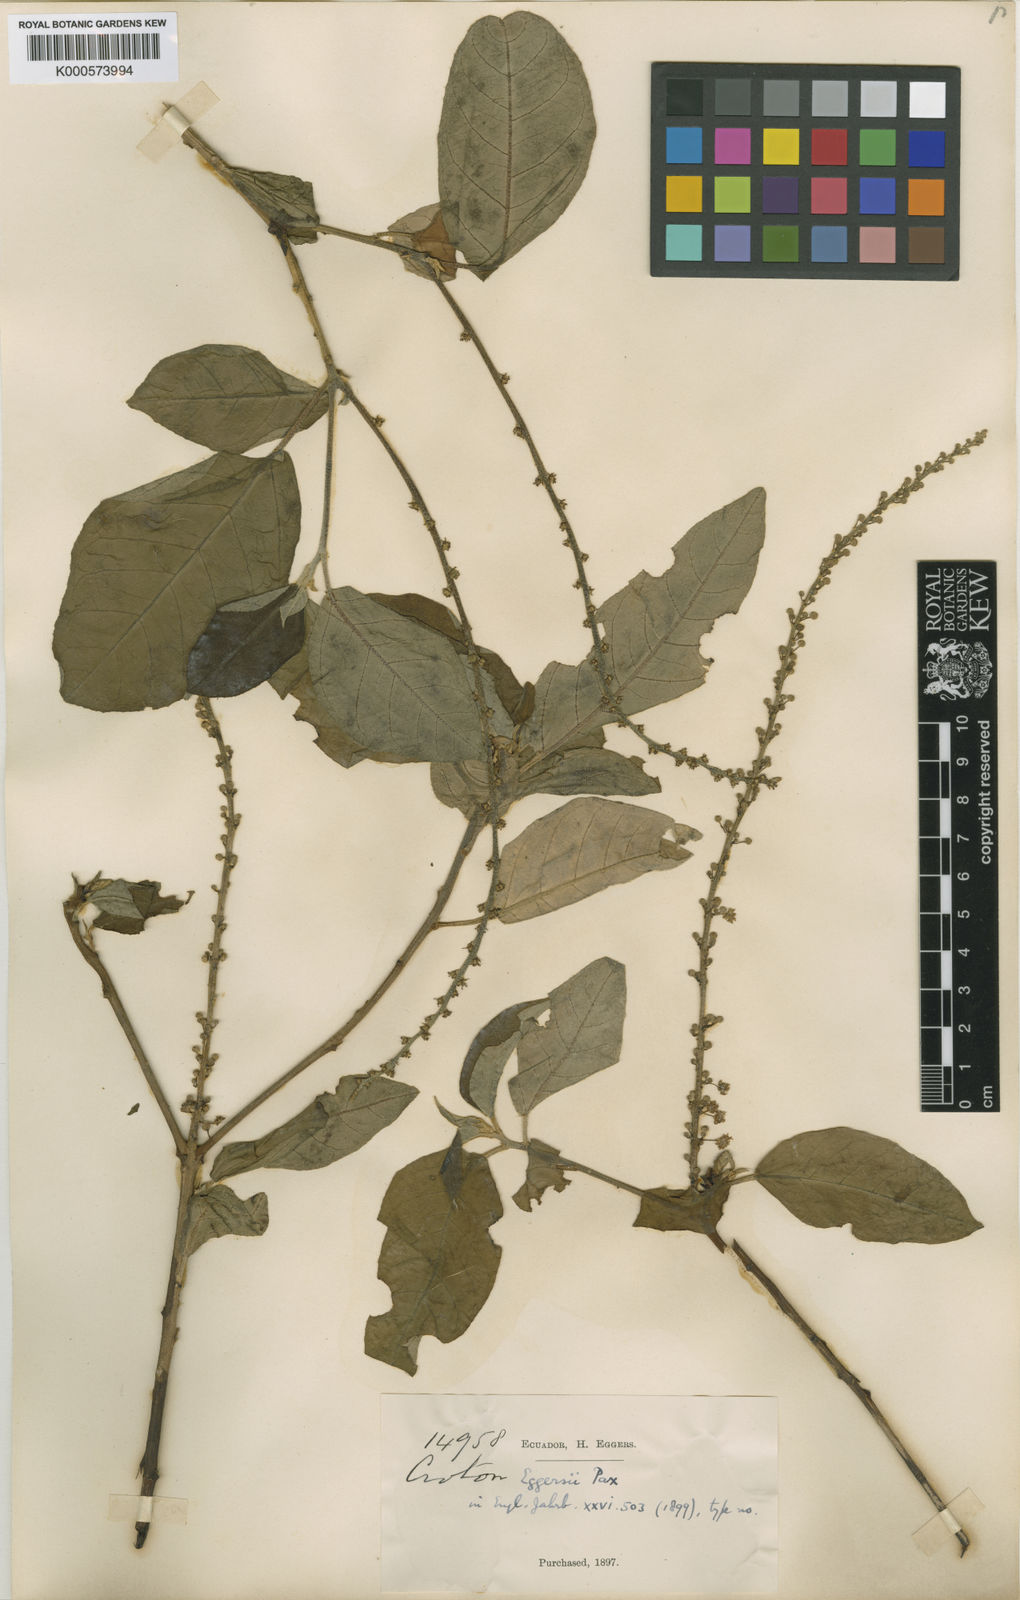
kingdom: Plantae
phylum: Tracheophyta
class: Magnoliopsida
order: Malpighiales
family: Euphorbiaceae
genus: Croton
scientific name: Croton eggersii
